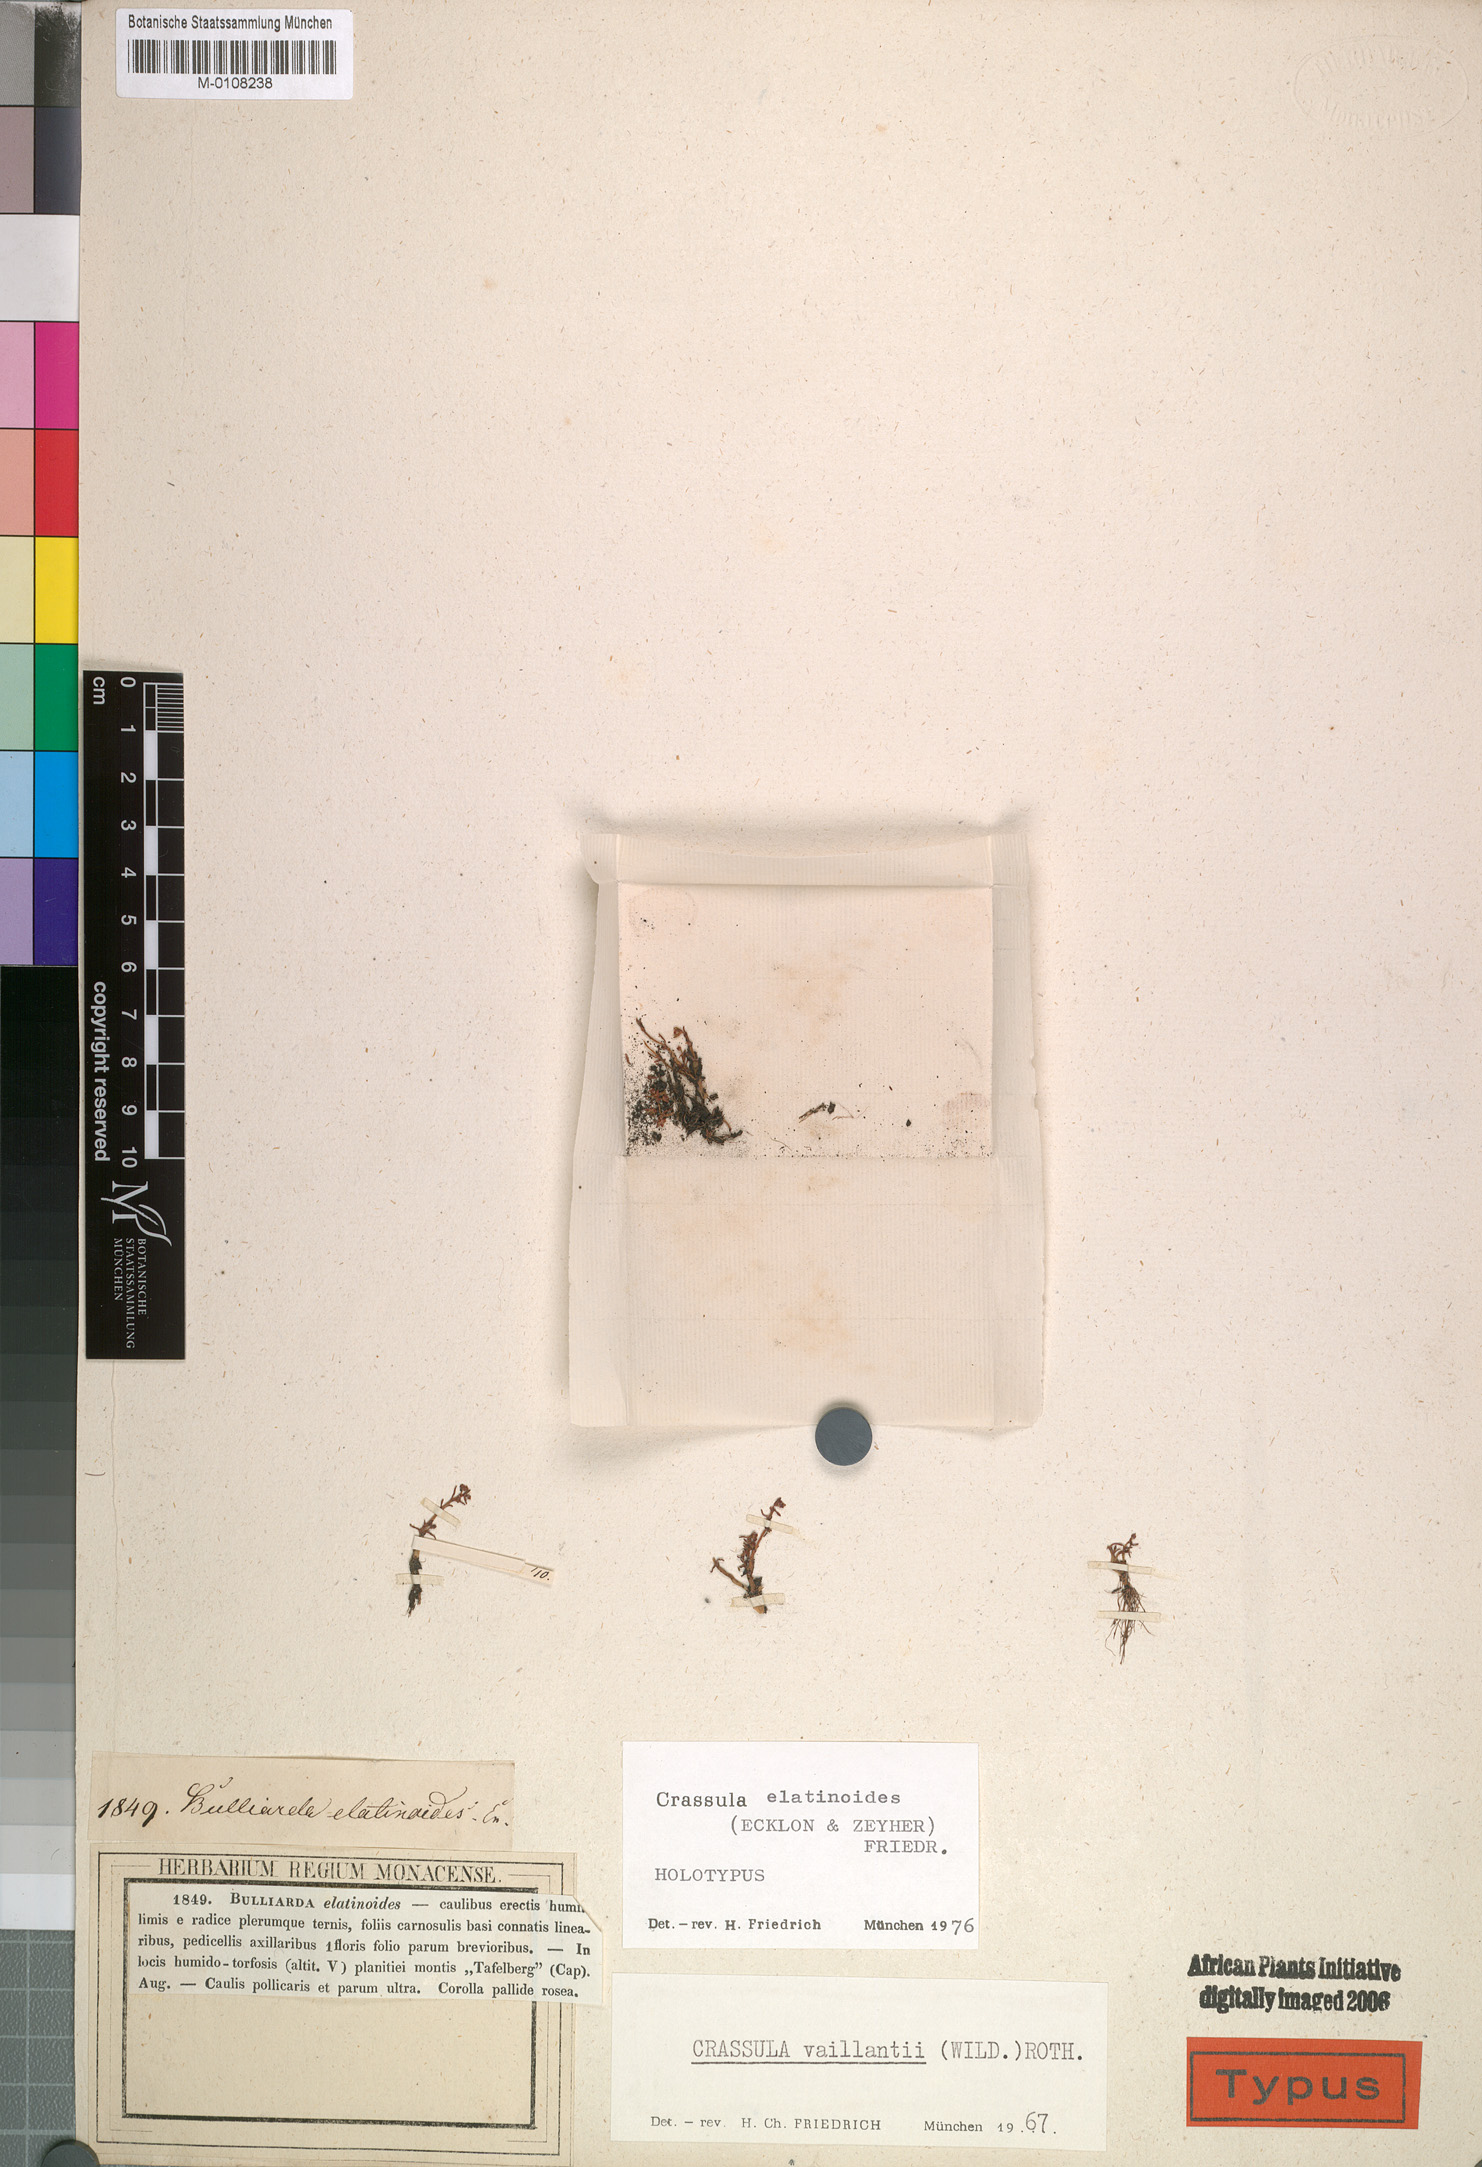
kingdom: Plantae
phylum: Tracheophyta
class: Magnoliopsida
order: Saxifragales
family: Crassulaceae
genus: Crassula
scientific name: Crassula elatinoides
